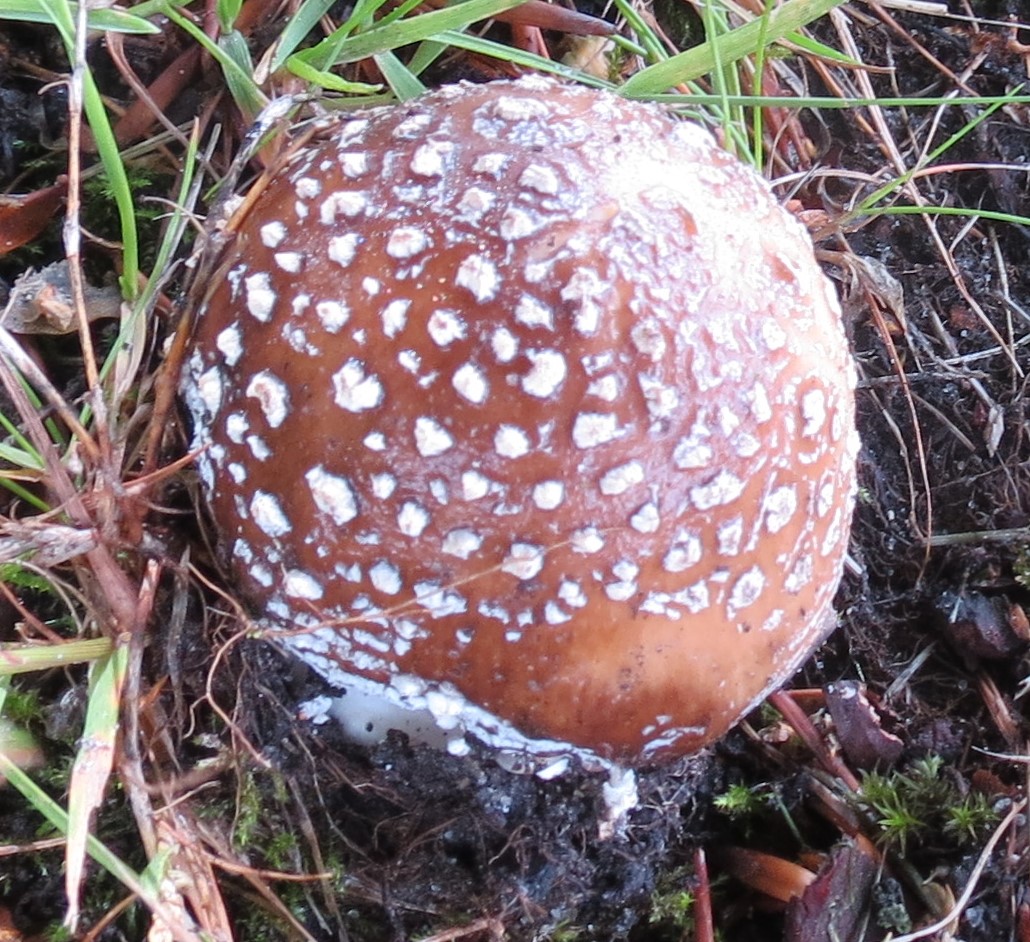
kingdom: Fungi
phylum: Basidiomycota
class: Agaricomycetes
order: Agaricales
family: Amanitaceae
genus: Amanita
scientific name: Amanita rubescens
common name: rødmende fluesvamp
